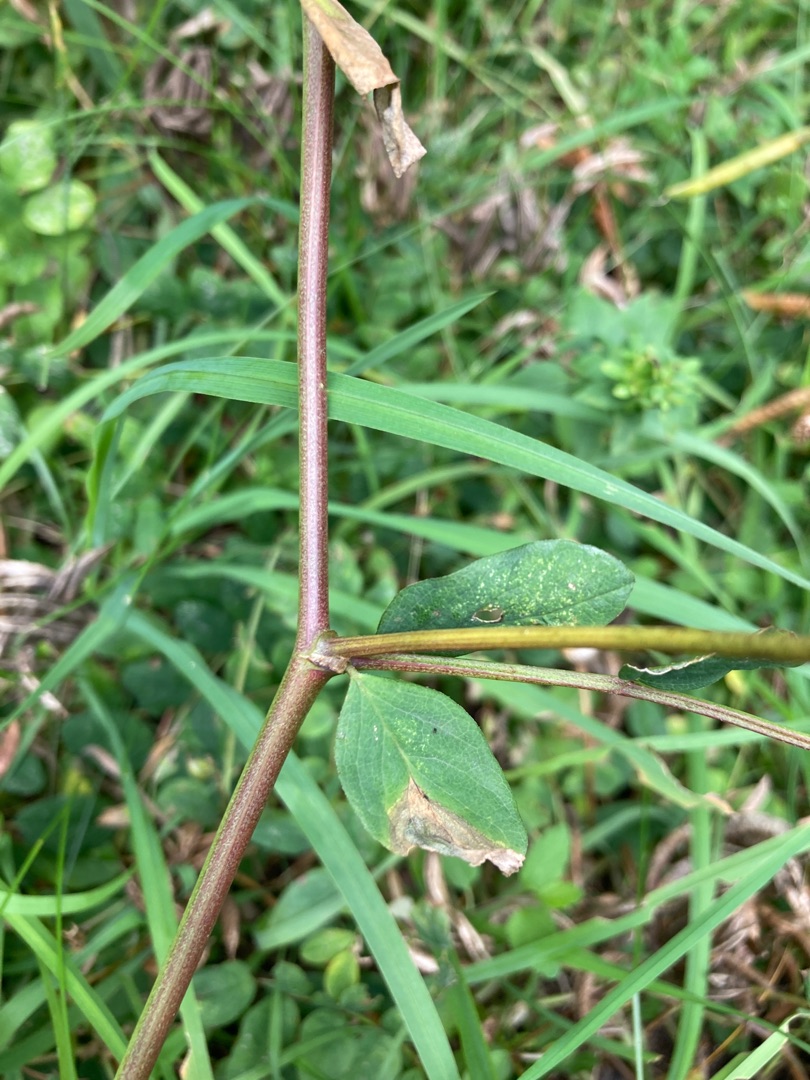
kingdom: Plantae
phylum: Tracheophyta
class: Magnoliopsida
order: Fabales
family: Fabaceae
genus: Astragalus
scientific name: Astragalus glycyphyllos
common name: Sød astragel
